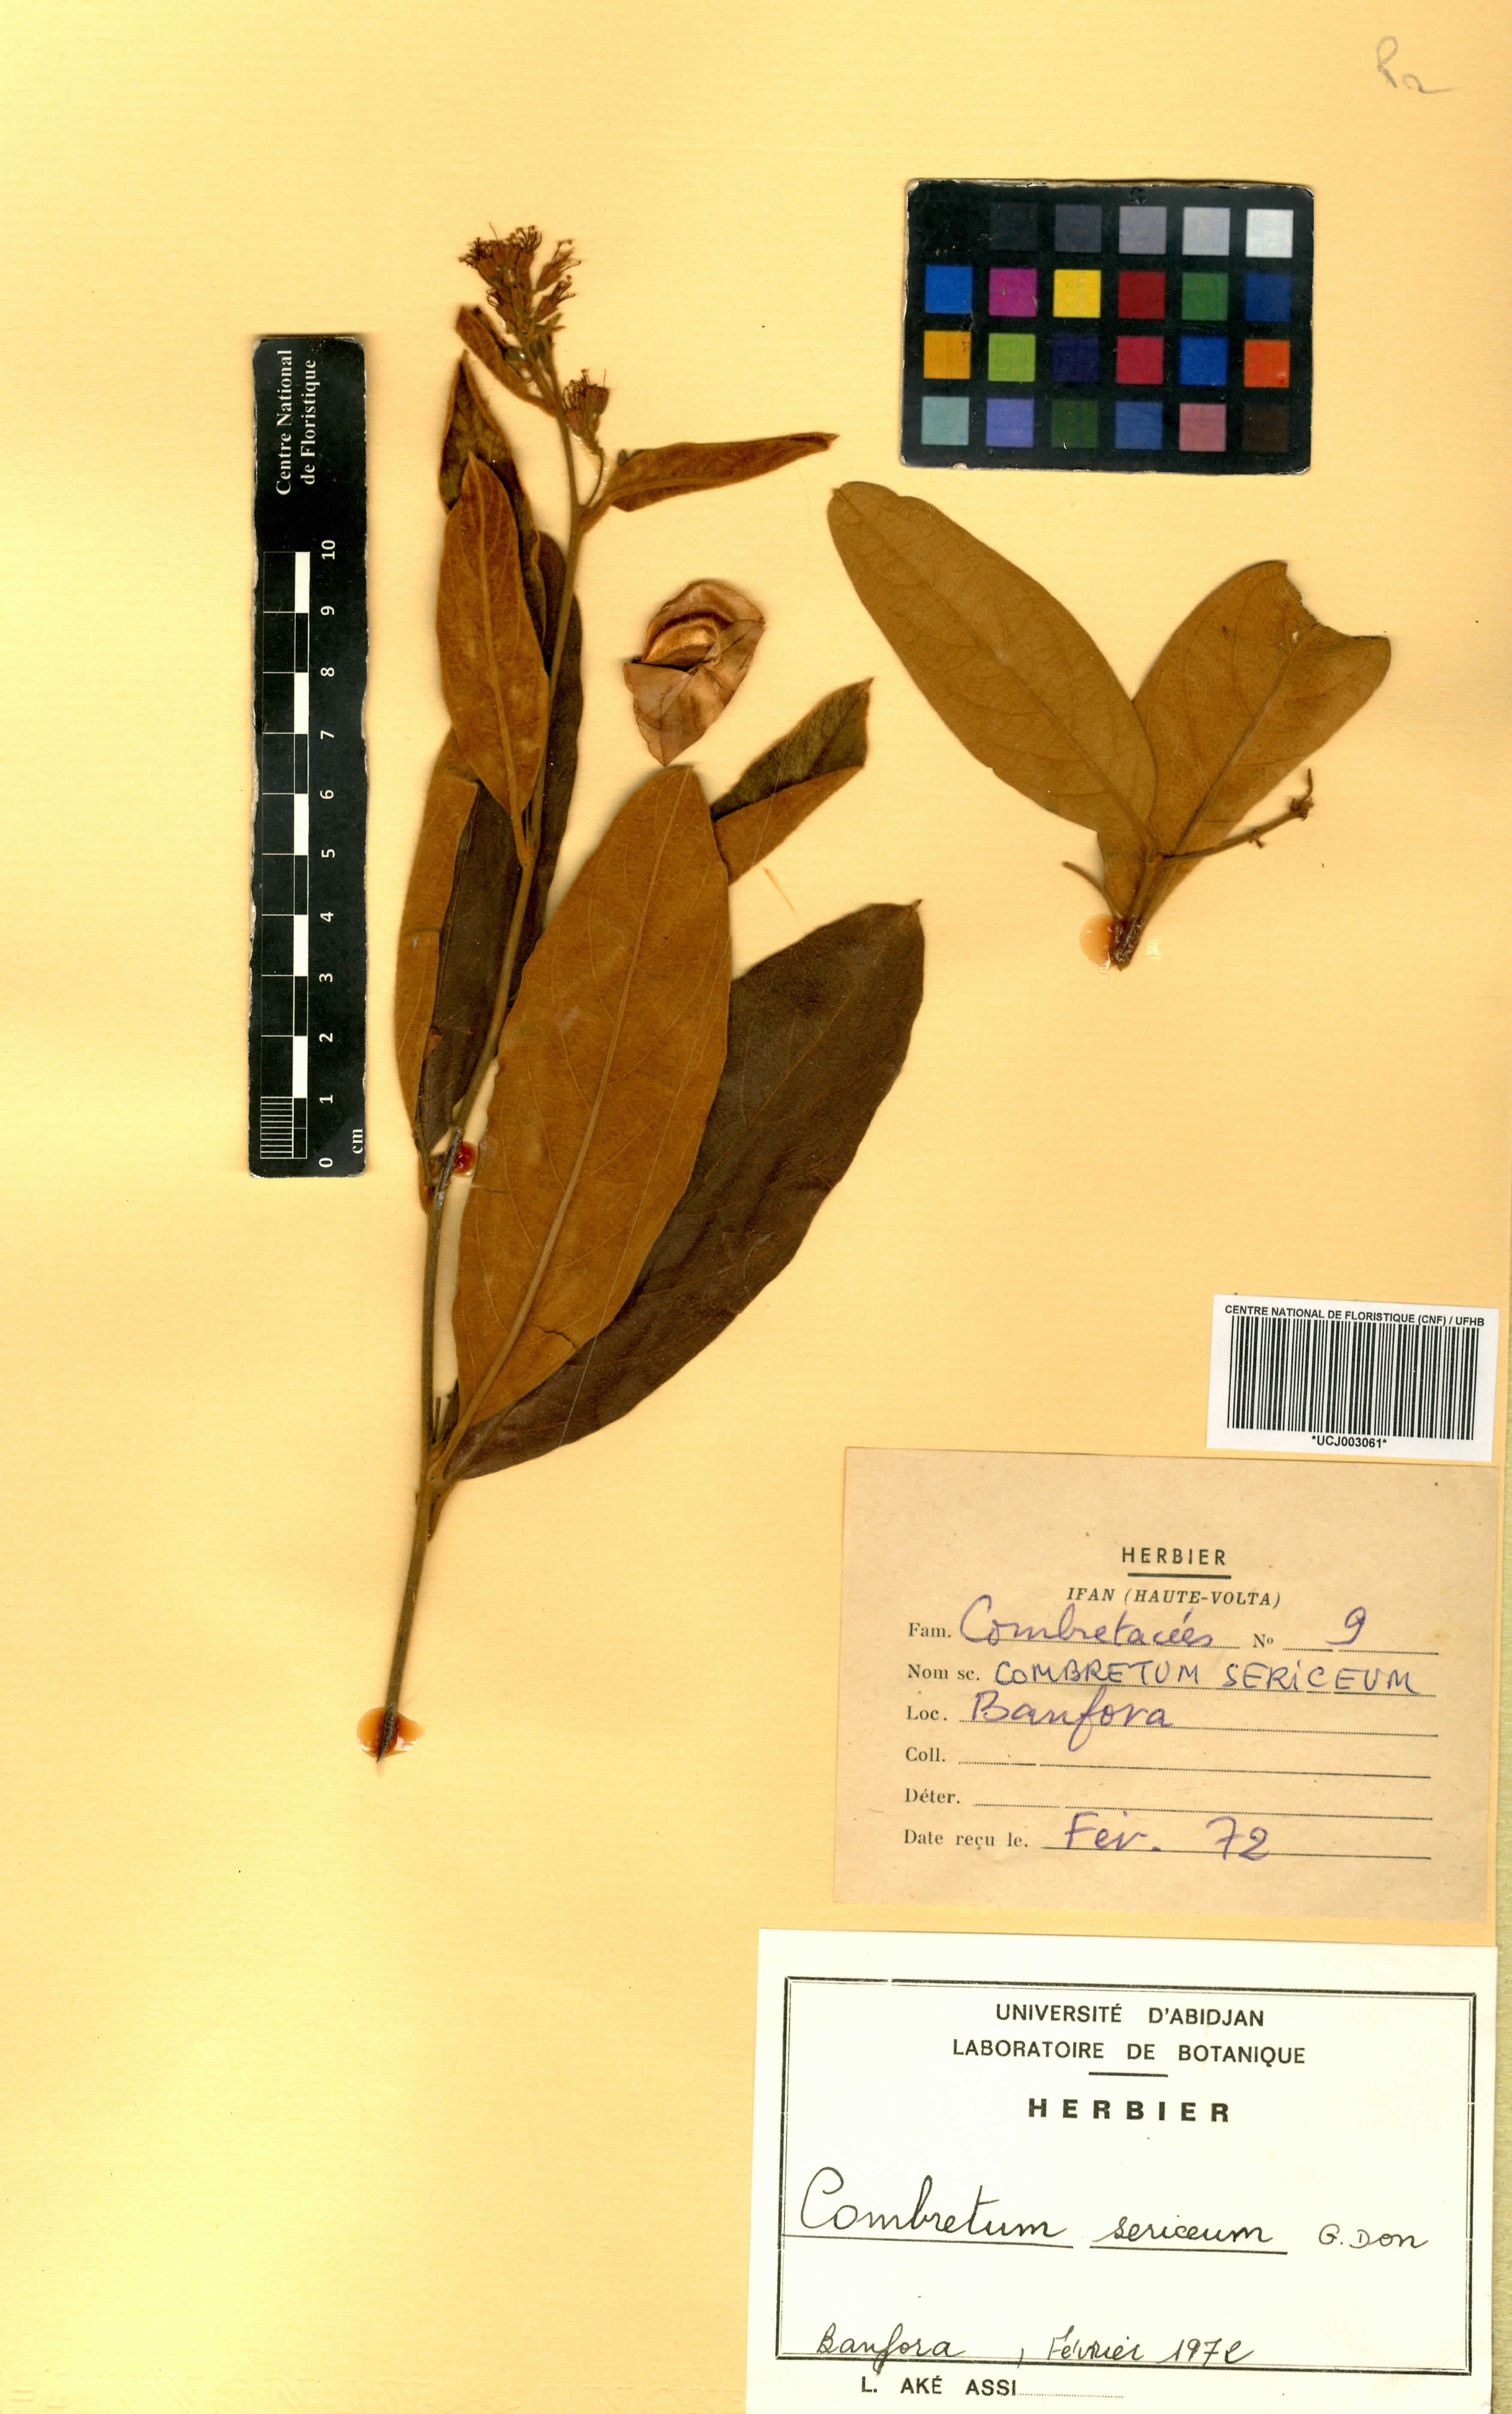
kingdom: Plantae
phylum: Tracheophyta
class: Magnoliopsida
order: Myrtales
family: Combretaceae
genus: Combretum
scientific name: Combretum sericeum
